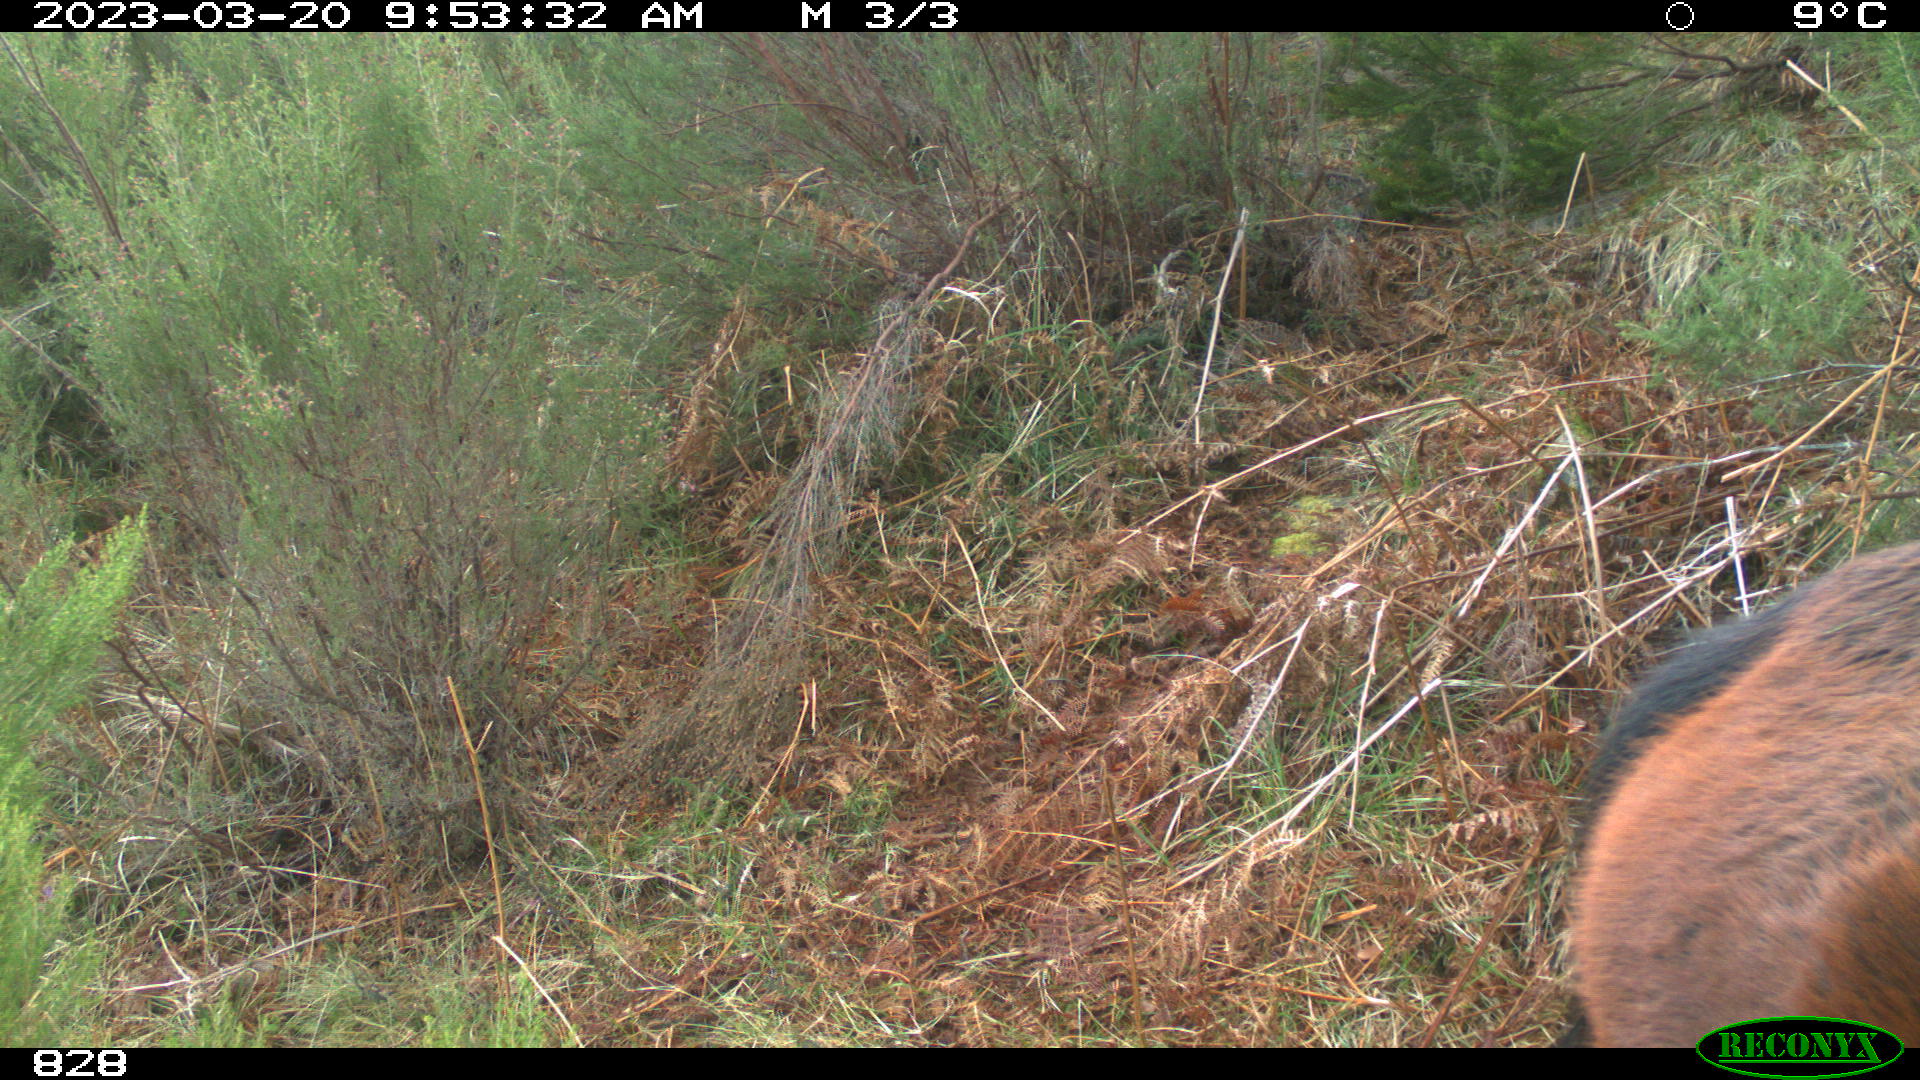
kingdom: Animalia
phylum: Chordata
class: Mammalia
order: Perissodactyla
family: Equidae
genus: Equus
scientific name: Equus caballus
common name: Horse
